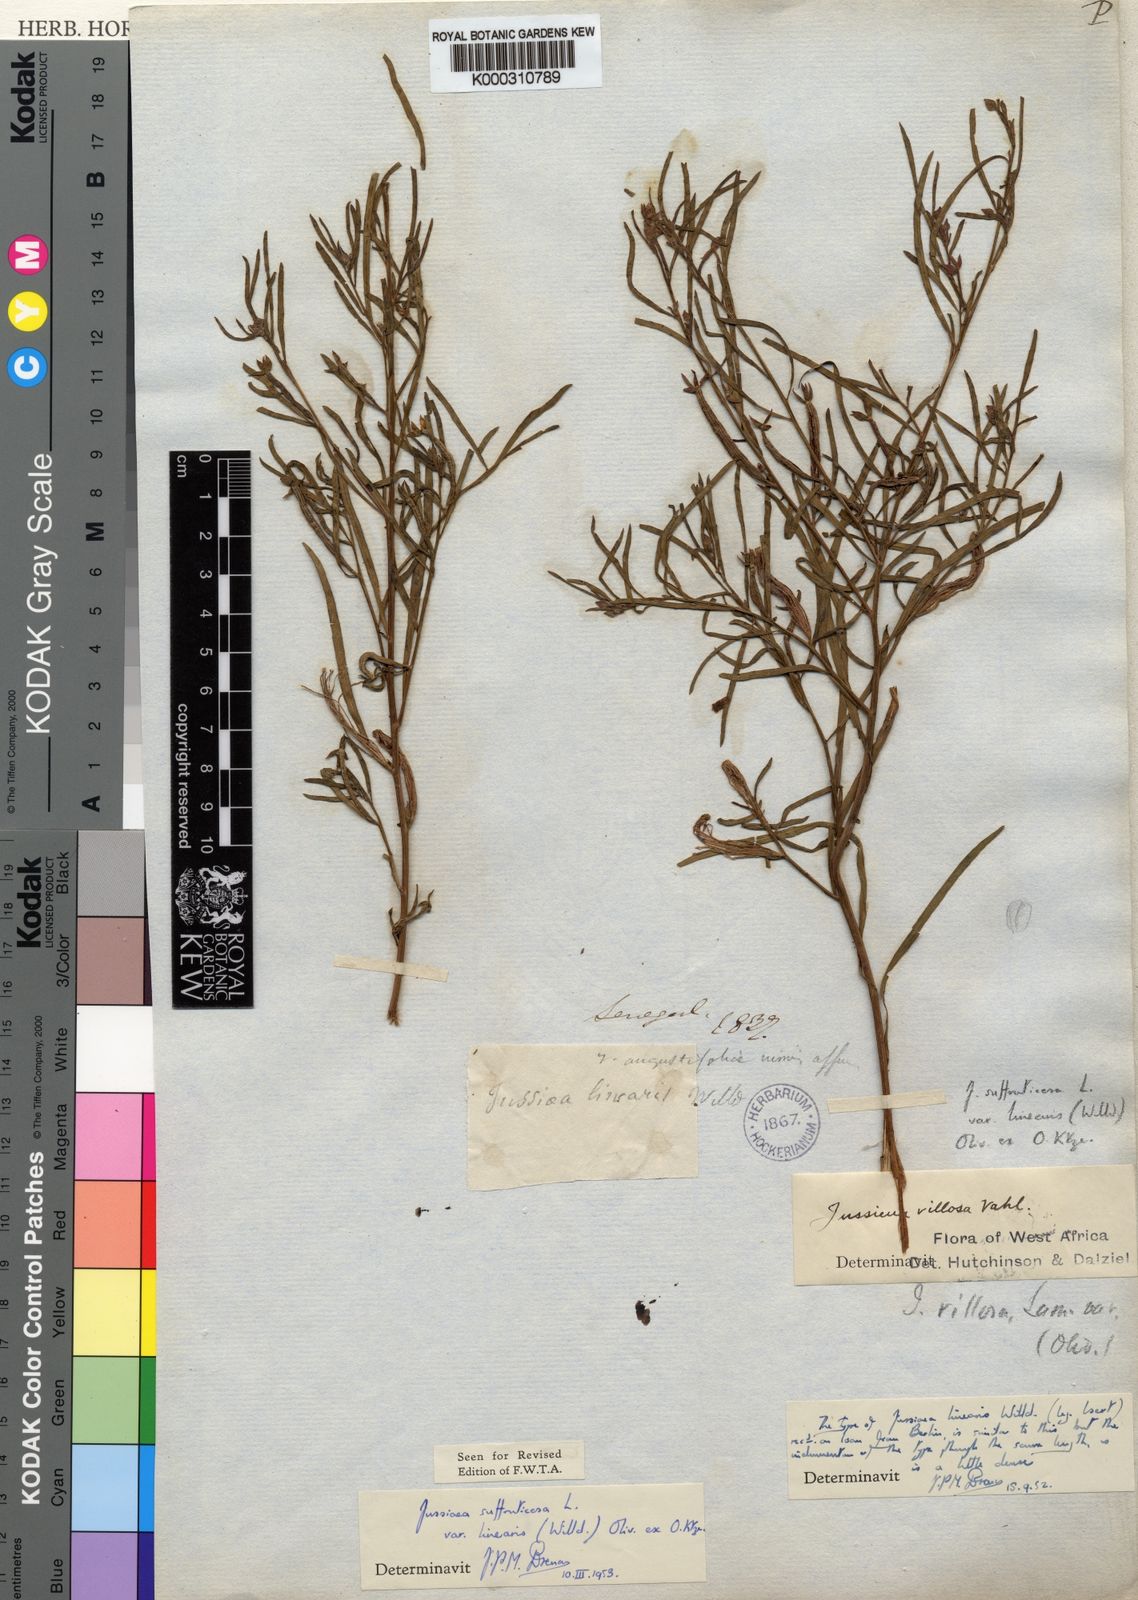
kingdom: Plantae
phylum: Tracheophyta
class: Magnoliopsida
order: Myrtales
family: Onagraceae
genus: Ludwigia
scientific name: Ludwigia
